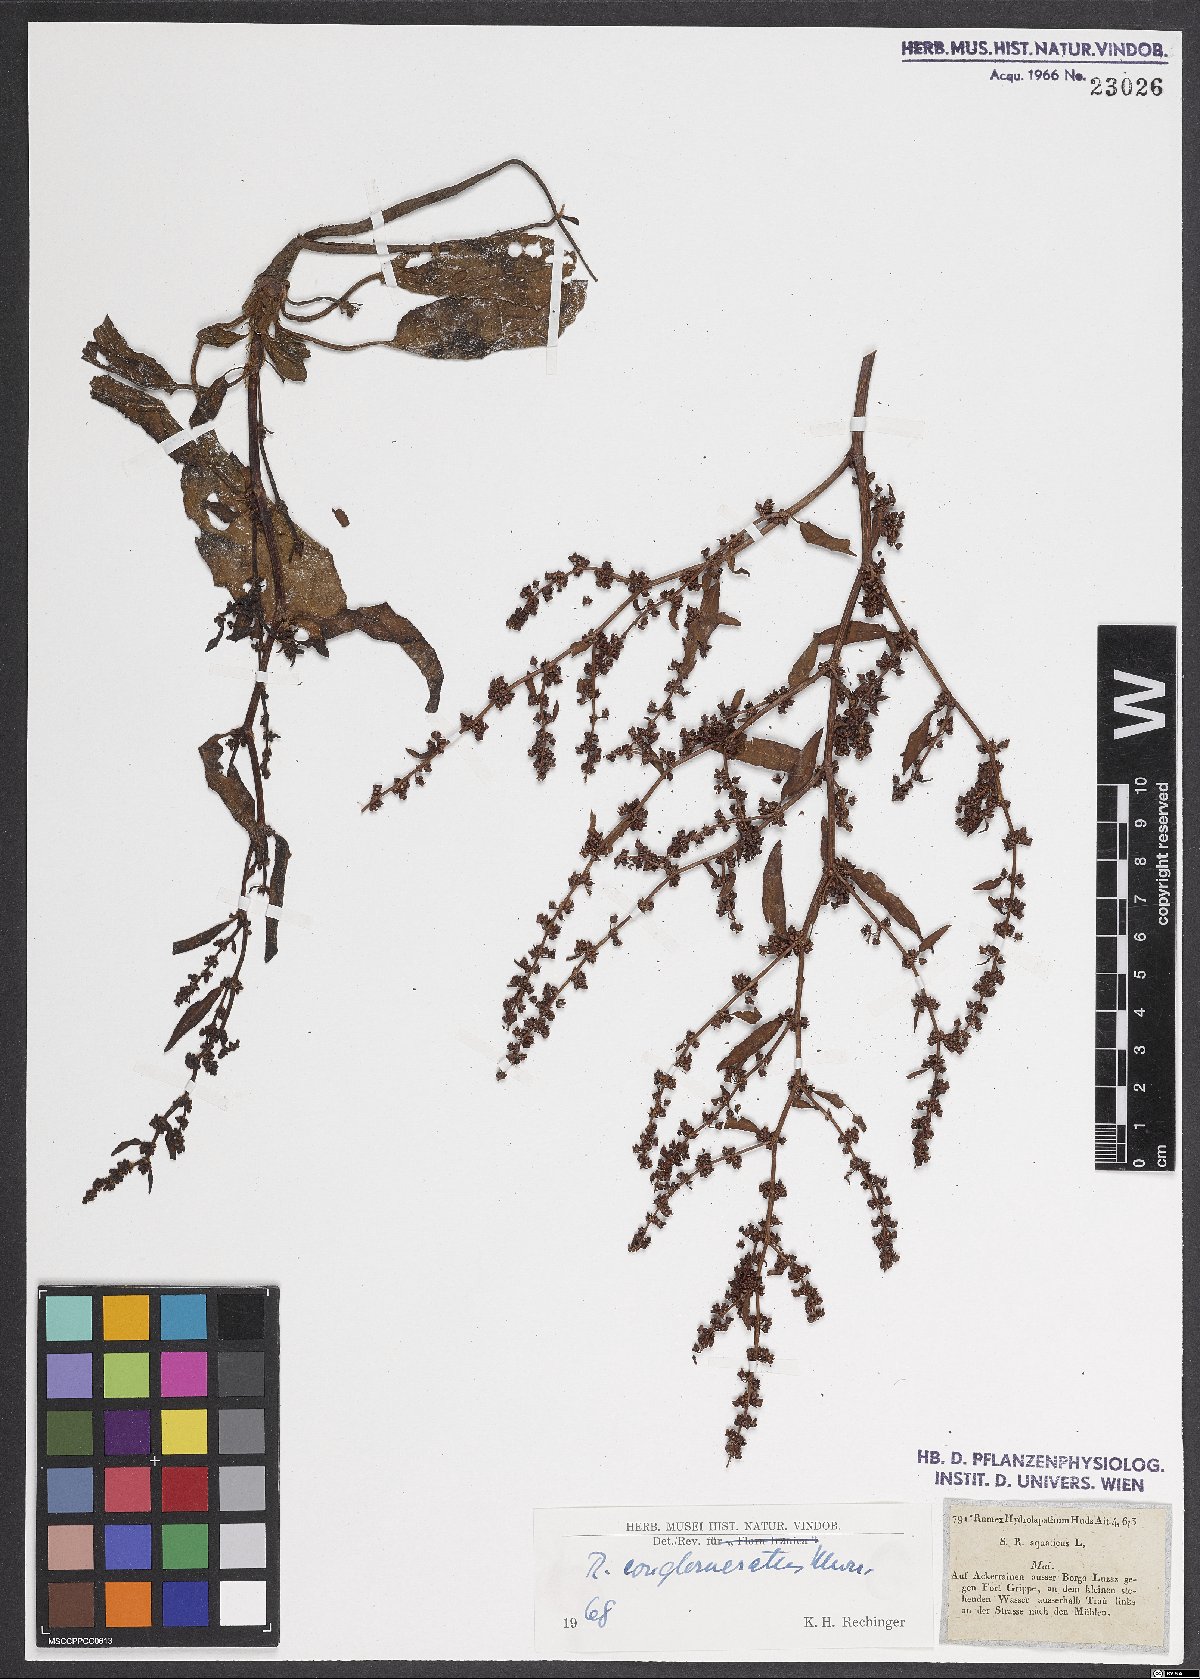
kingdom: Plantae
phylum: Tracheophyta
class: Magnoliopsida
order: Caryophyllales
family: Polygonaceae
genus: Rumex
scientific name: Rumex conglomeratus
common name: Clustered dock
